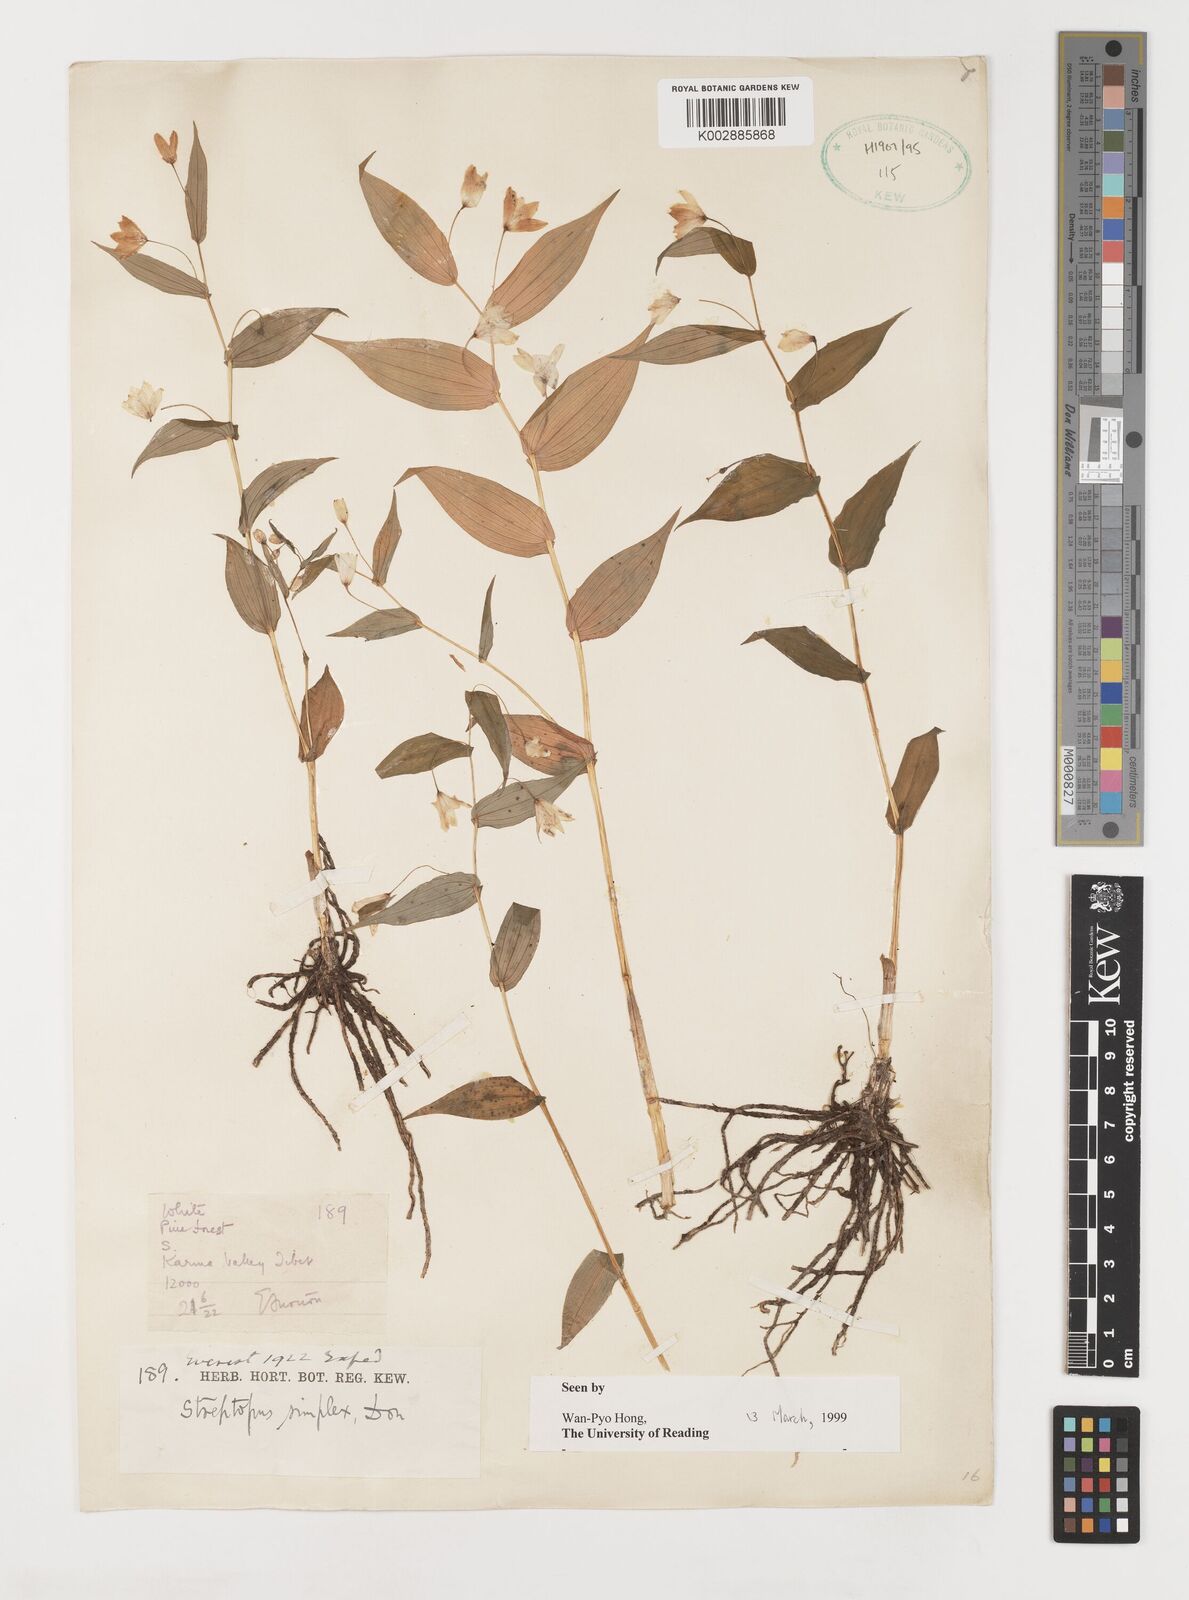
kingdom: Plantae
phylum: Tracheophyta
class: Liliopsida
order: Liliales
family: Liliaceae
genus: Streptopus
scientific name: Streptopus simplex
